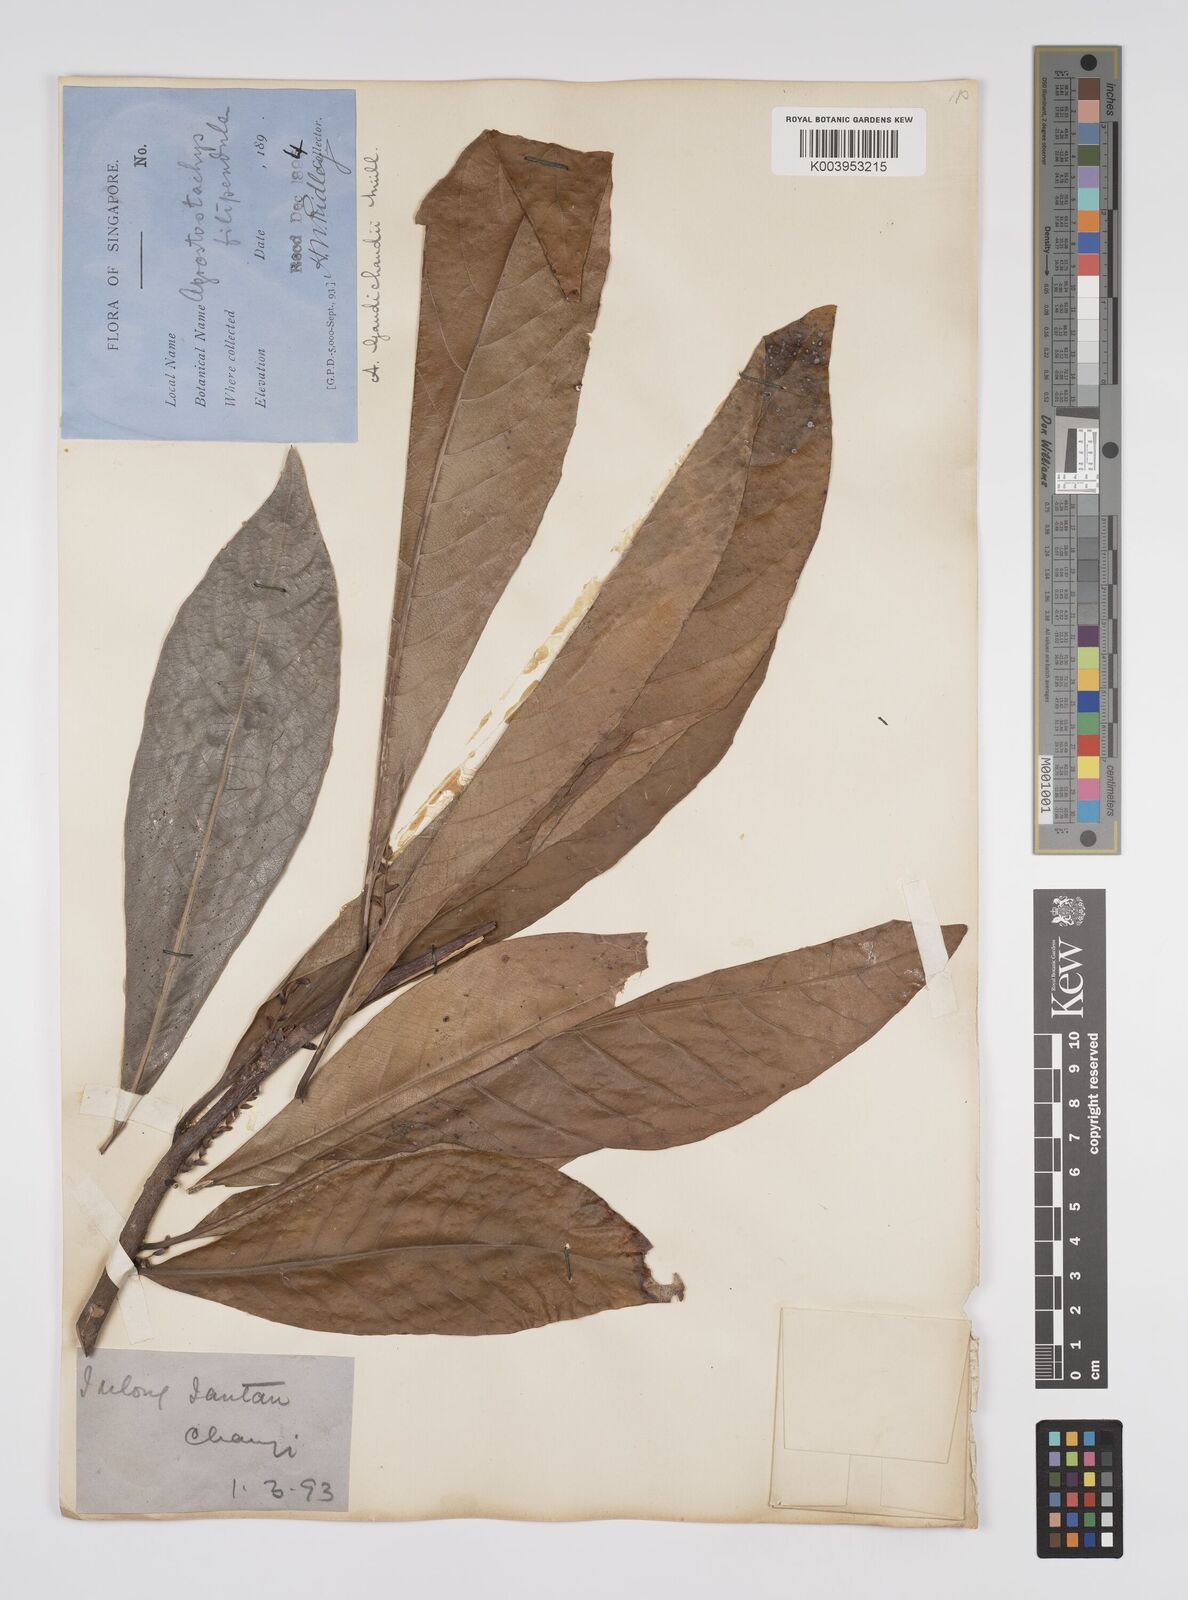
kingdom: Plantae
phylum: Tracheophyta
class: Magnoliopsida
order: Malpighiales
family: Euphorbiaceae
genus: Agrostistachys
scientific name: Agrostistachys gaudichaudii
